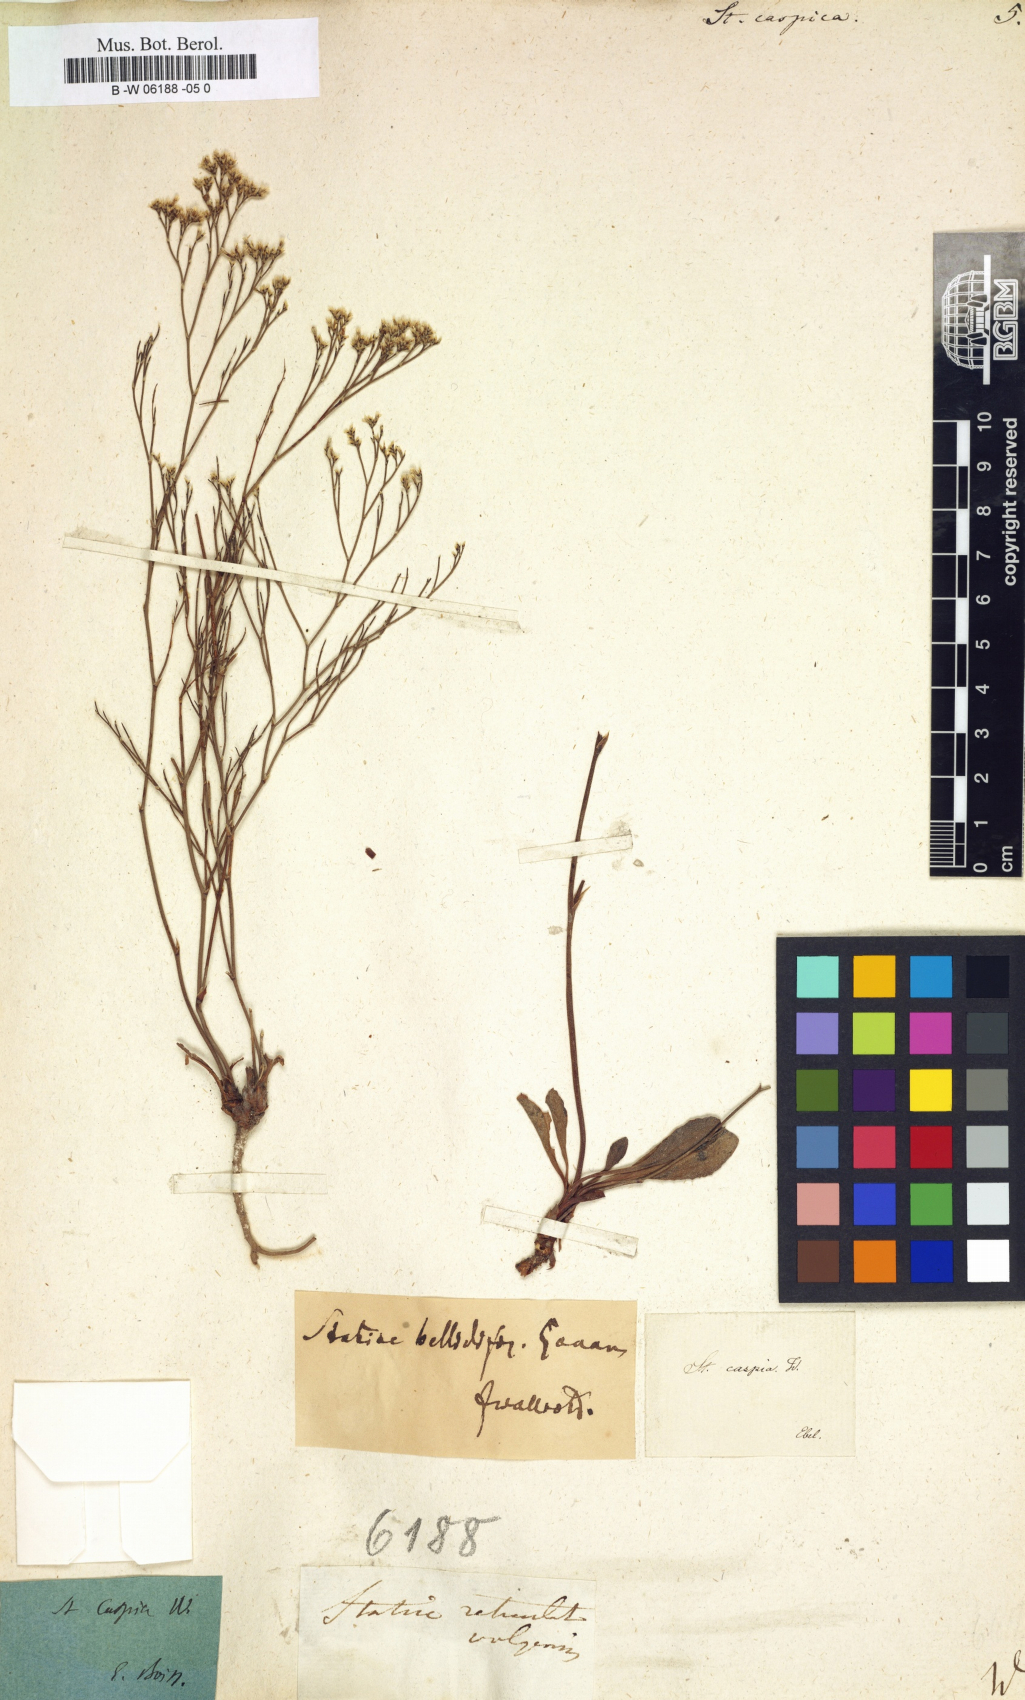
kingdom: Plantae
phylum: Tracheophyta
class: Magnoliopsida
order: Caryophyllales
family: Plumbaginaceae
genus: Limonium
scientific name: Limonium bellidifolium
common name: Matted sea-lavender
